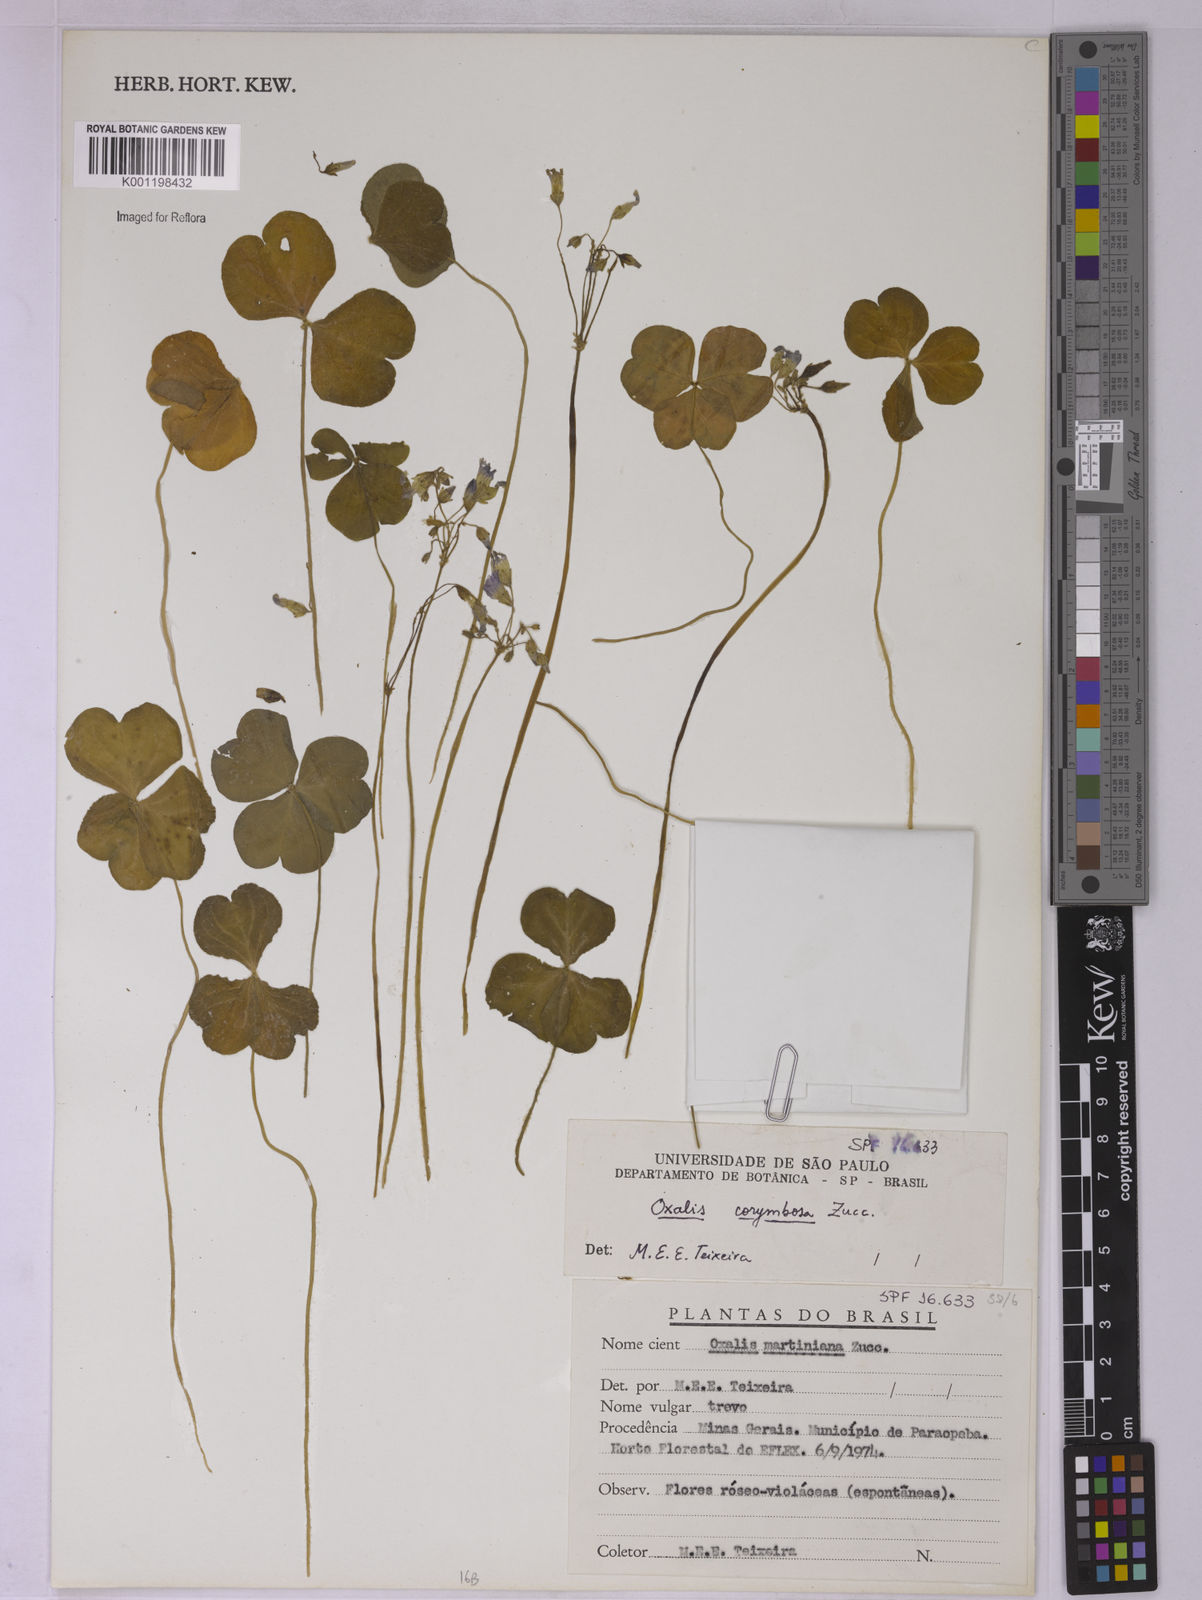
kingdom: Plantae
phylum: Tracheophyta
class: Magnoliopsida
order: Oxalidales
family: Oxalidaceae
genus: Oxalis
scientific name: Oxalis debilis
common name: Large-flowered pink-sorrel
